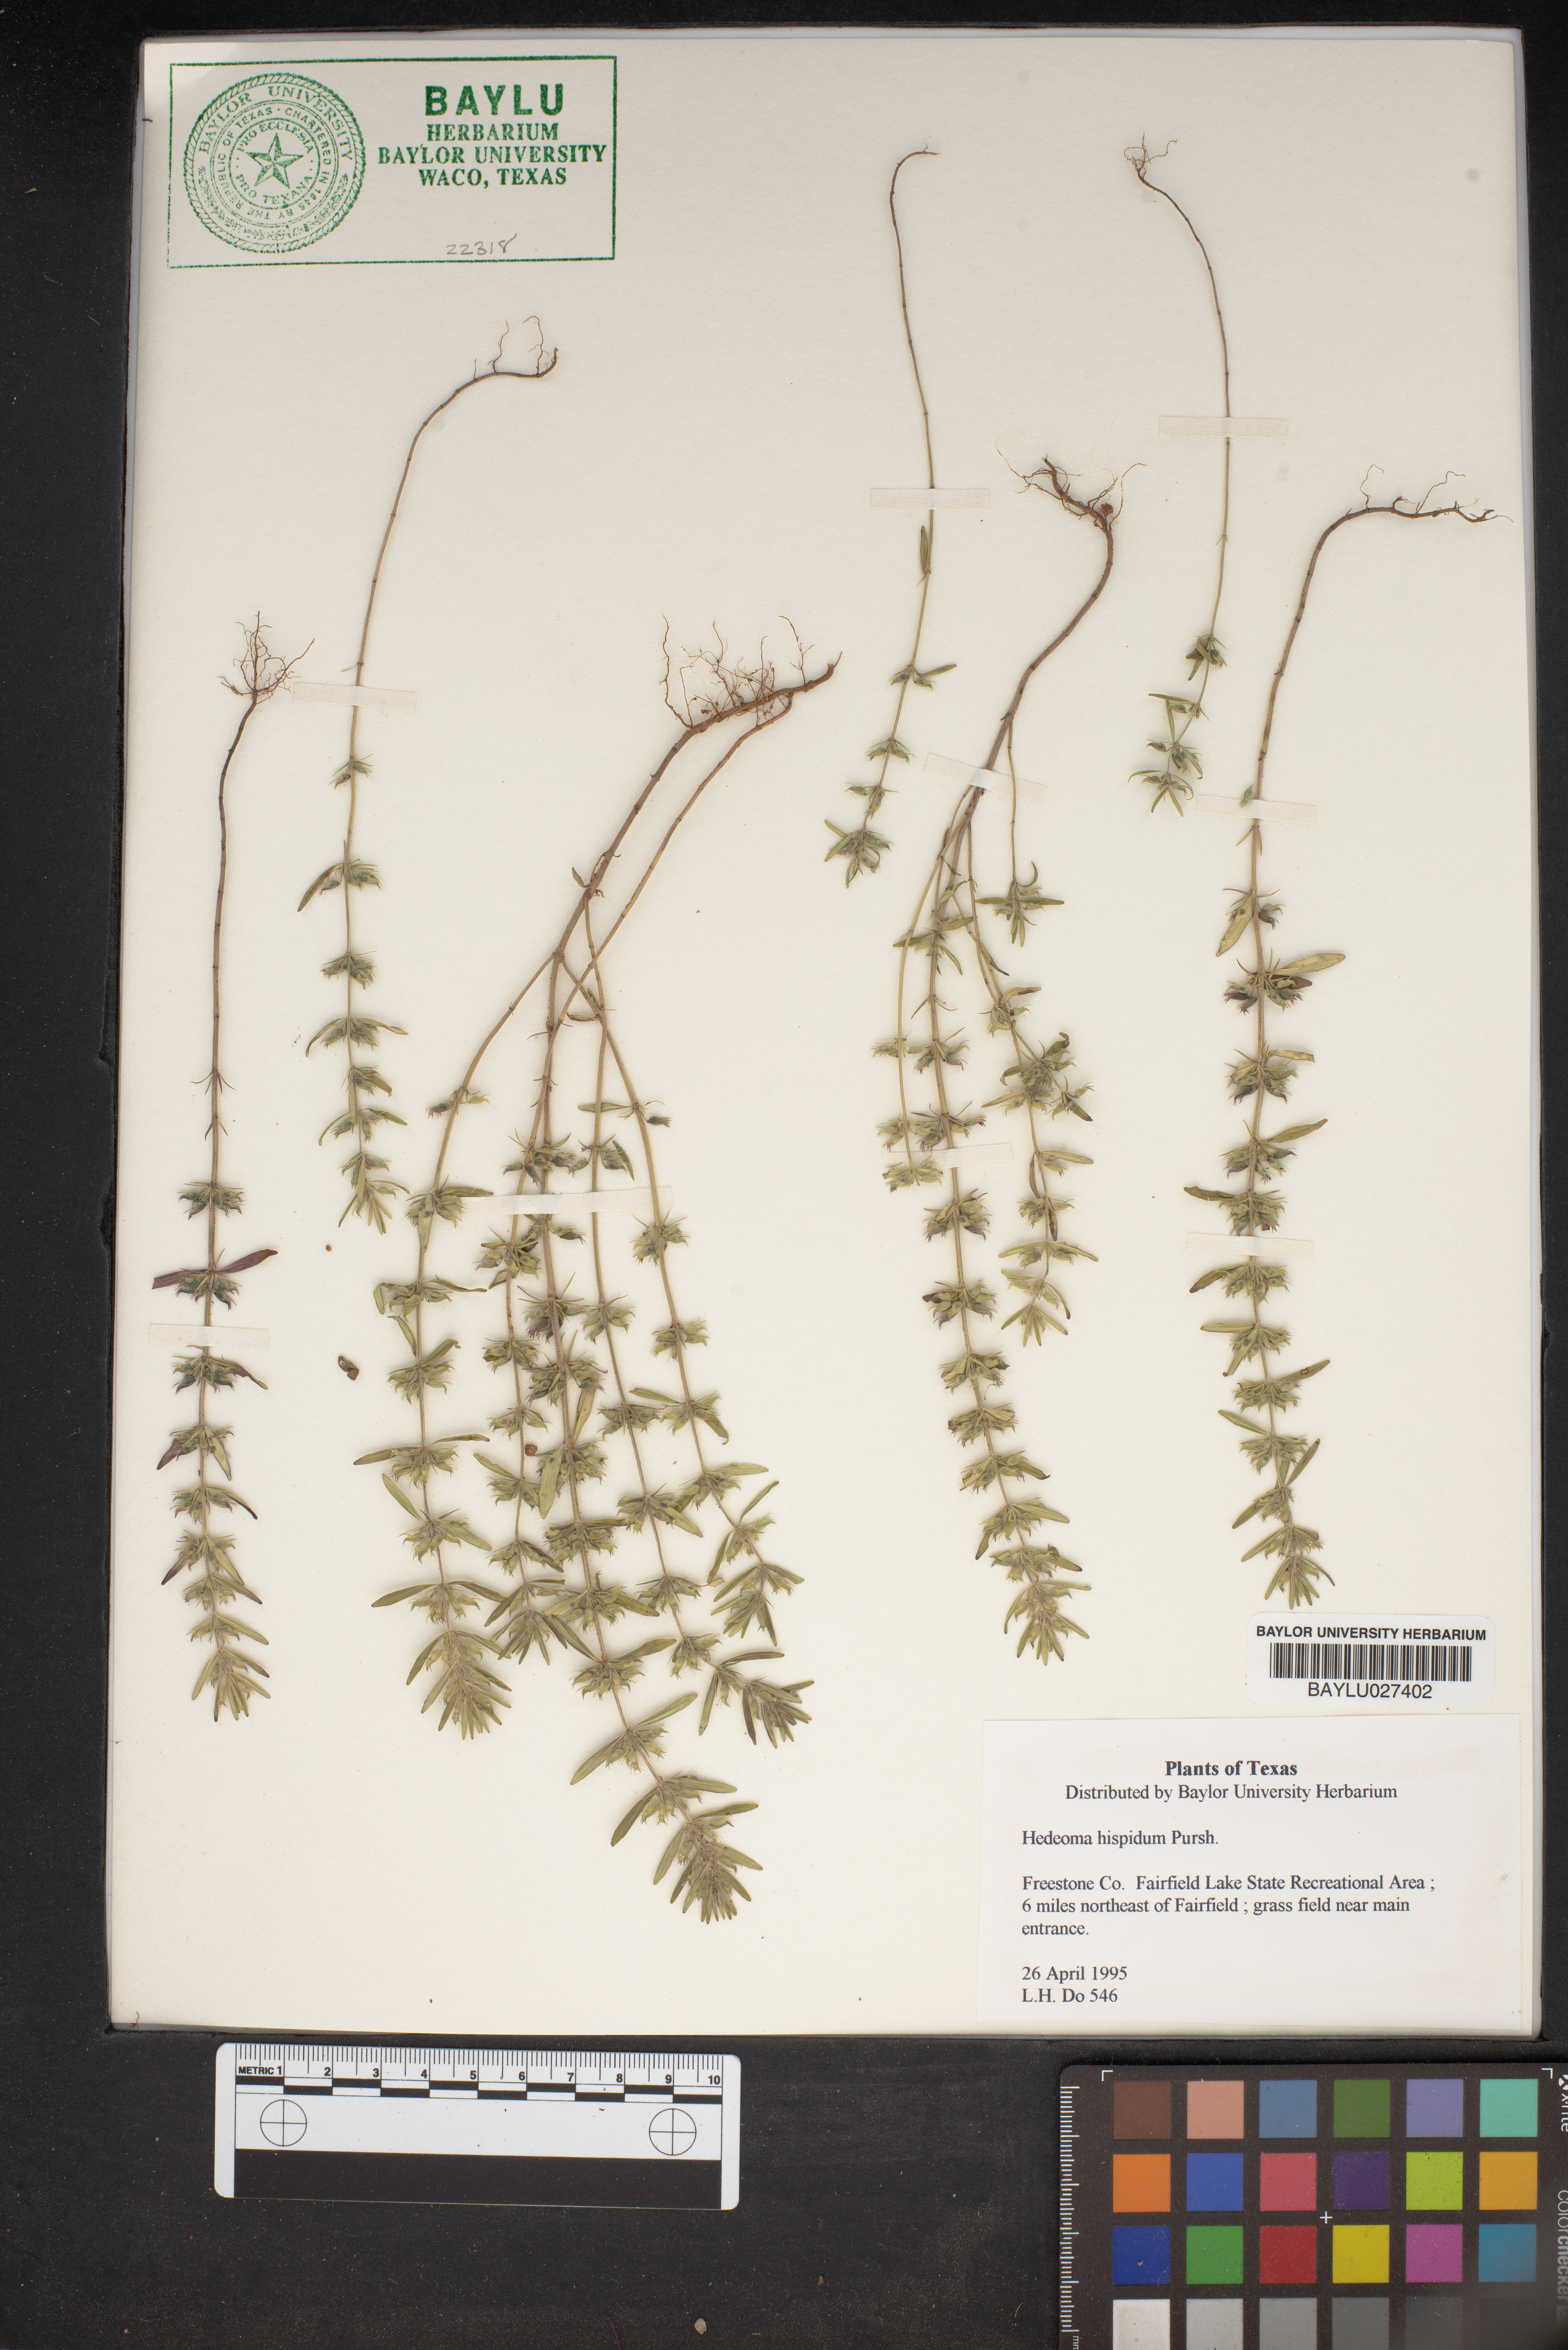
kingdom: Plantae
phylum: Tracheophyta
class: Magnoliopsida
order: Lamiales
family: Lamiaceae
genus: Hedeoma
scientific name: Hedeoma hispida
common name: Mock pennyroyal
